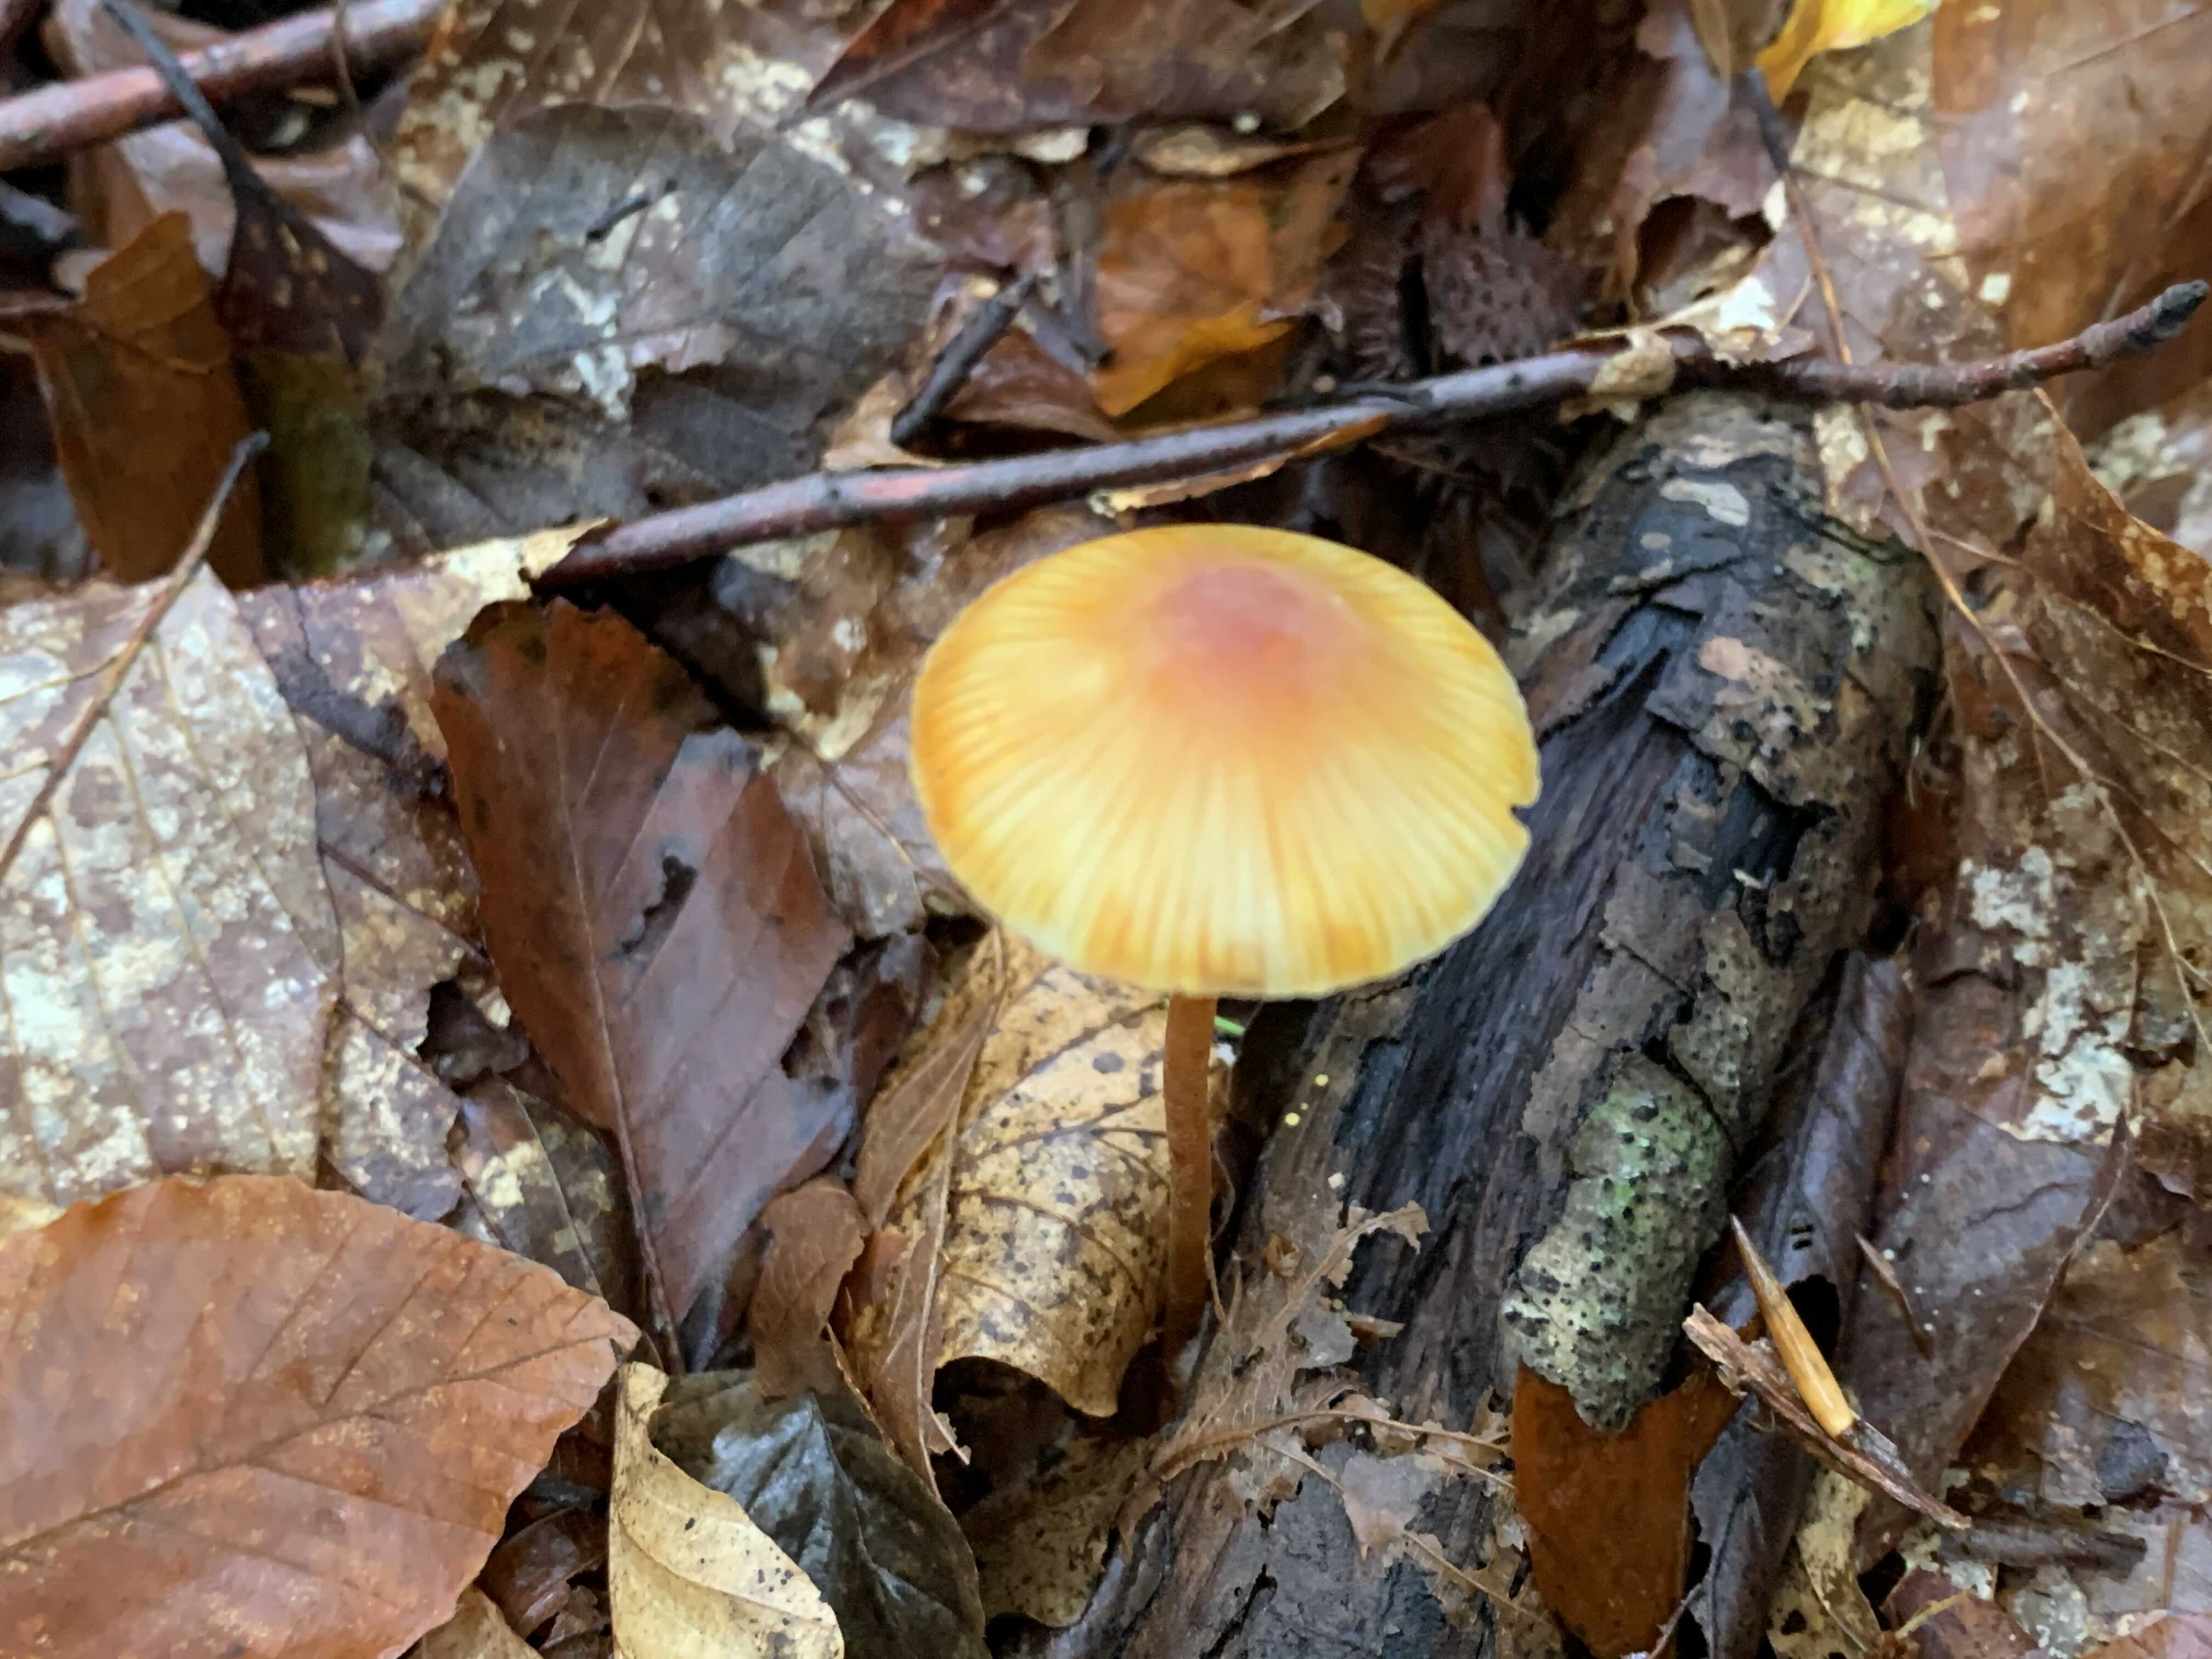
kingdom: Fungi
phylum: Basidiomycota
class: Agaricomycetes
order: Agaricales
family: Mycenaceae
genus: Mycena
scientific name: Mycena crocata
